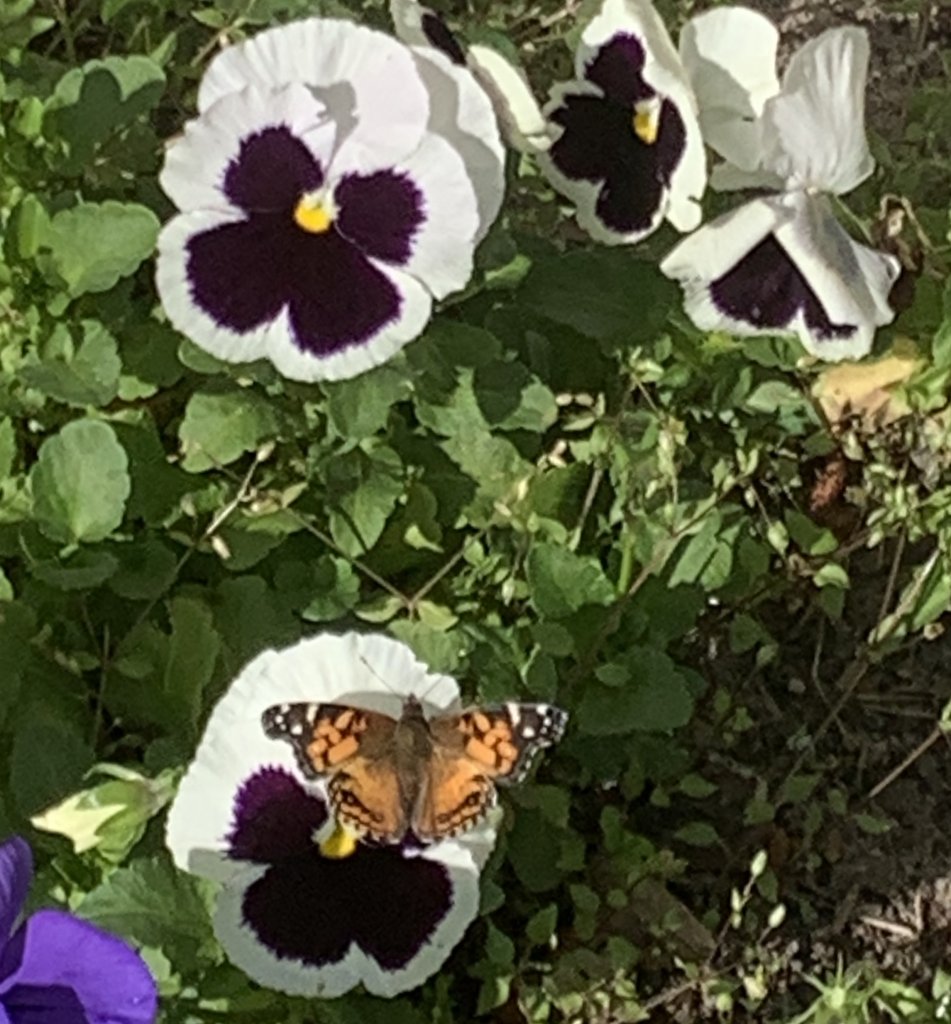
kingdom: Animalia
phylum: Arthropoda
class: Insecta
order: Lepidoptera
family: Nymphalidae
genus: Vanessa
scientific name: Vanessa virginiensis
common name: American Lady
